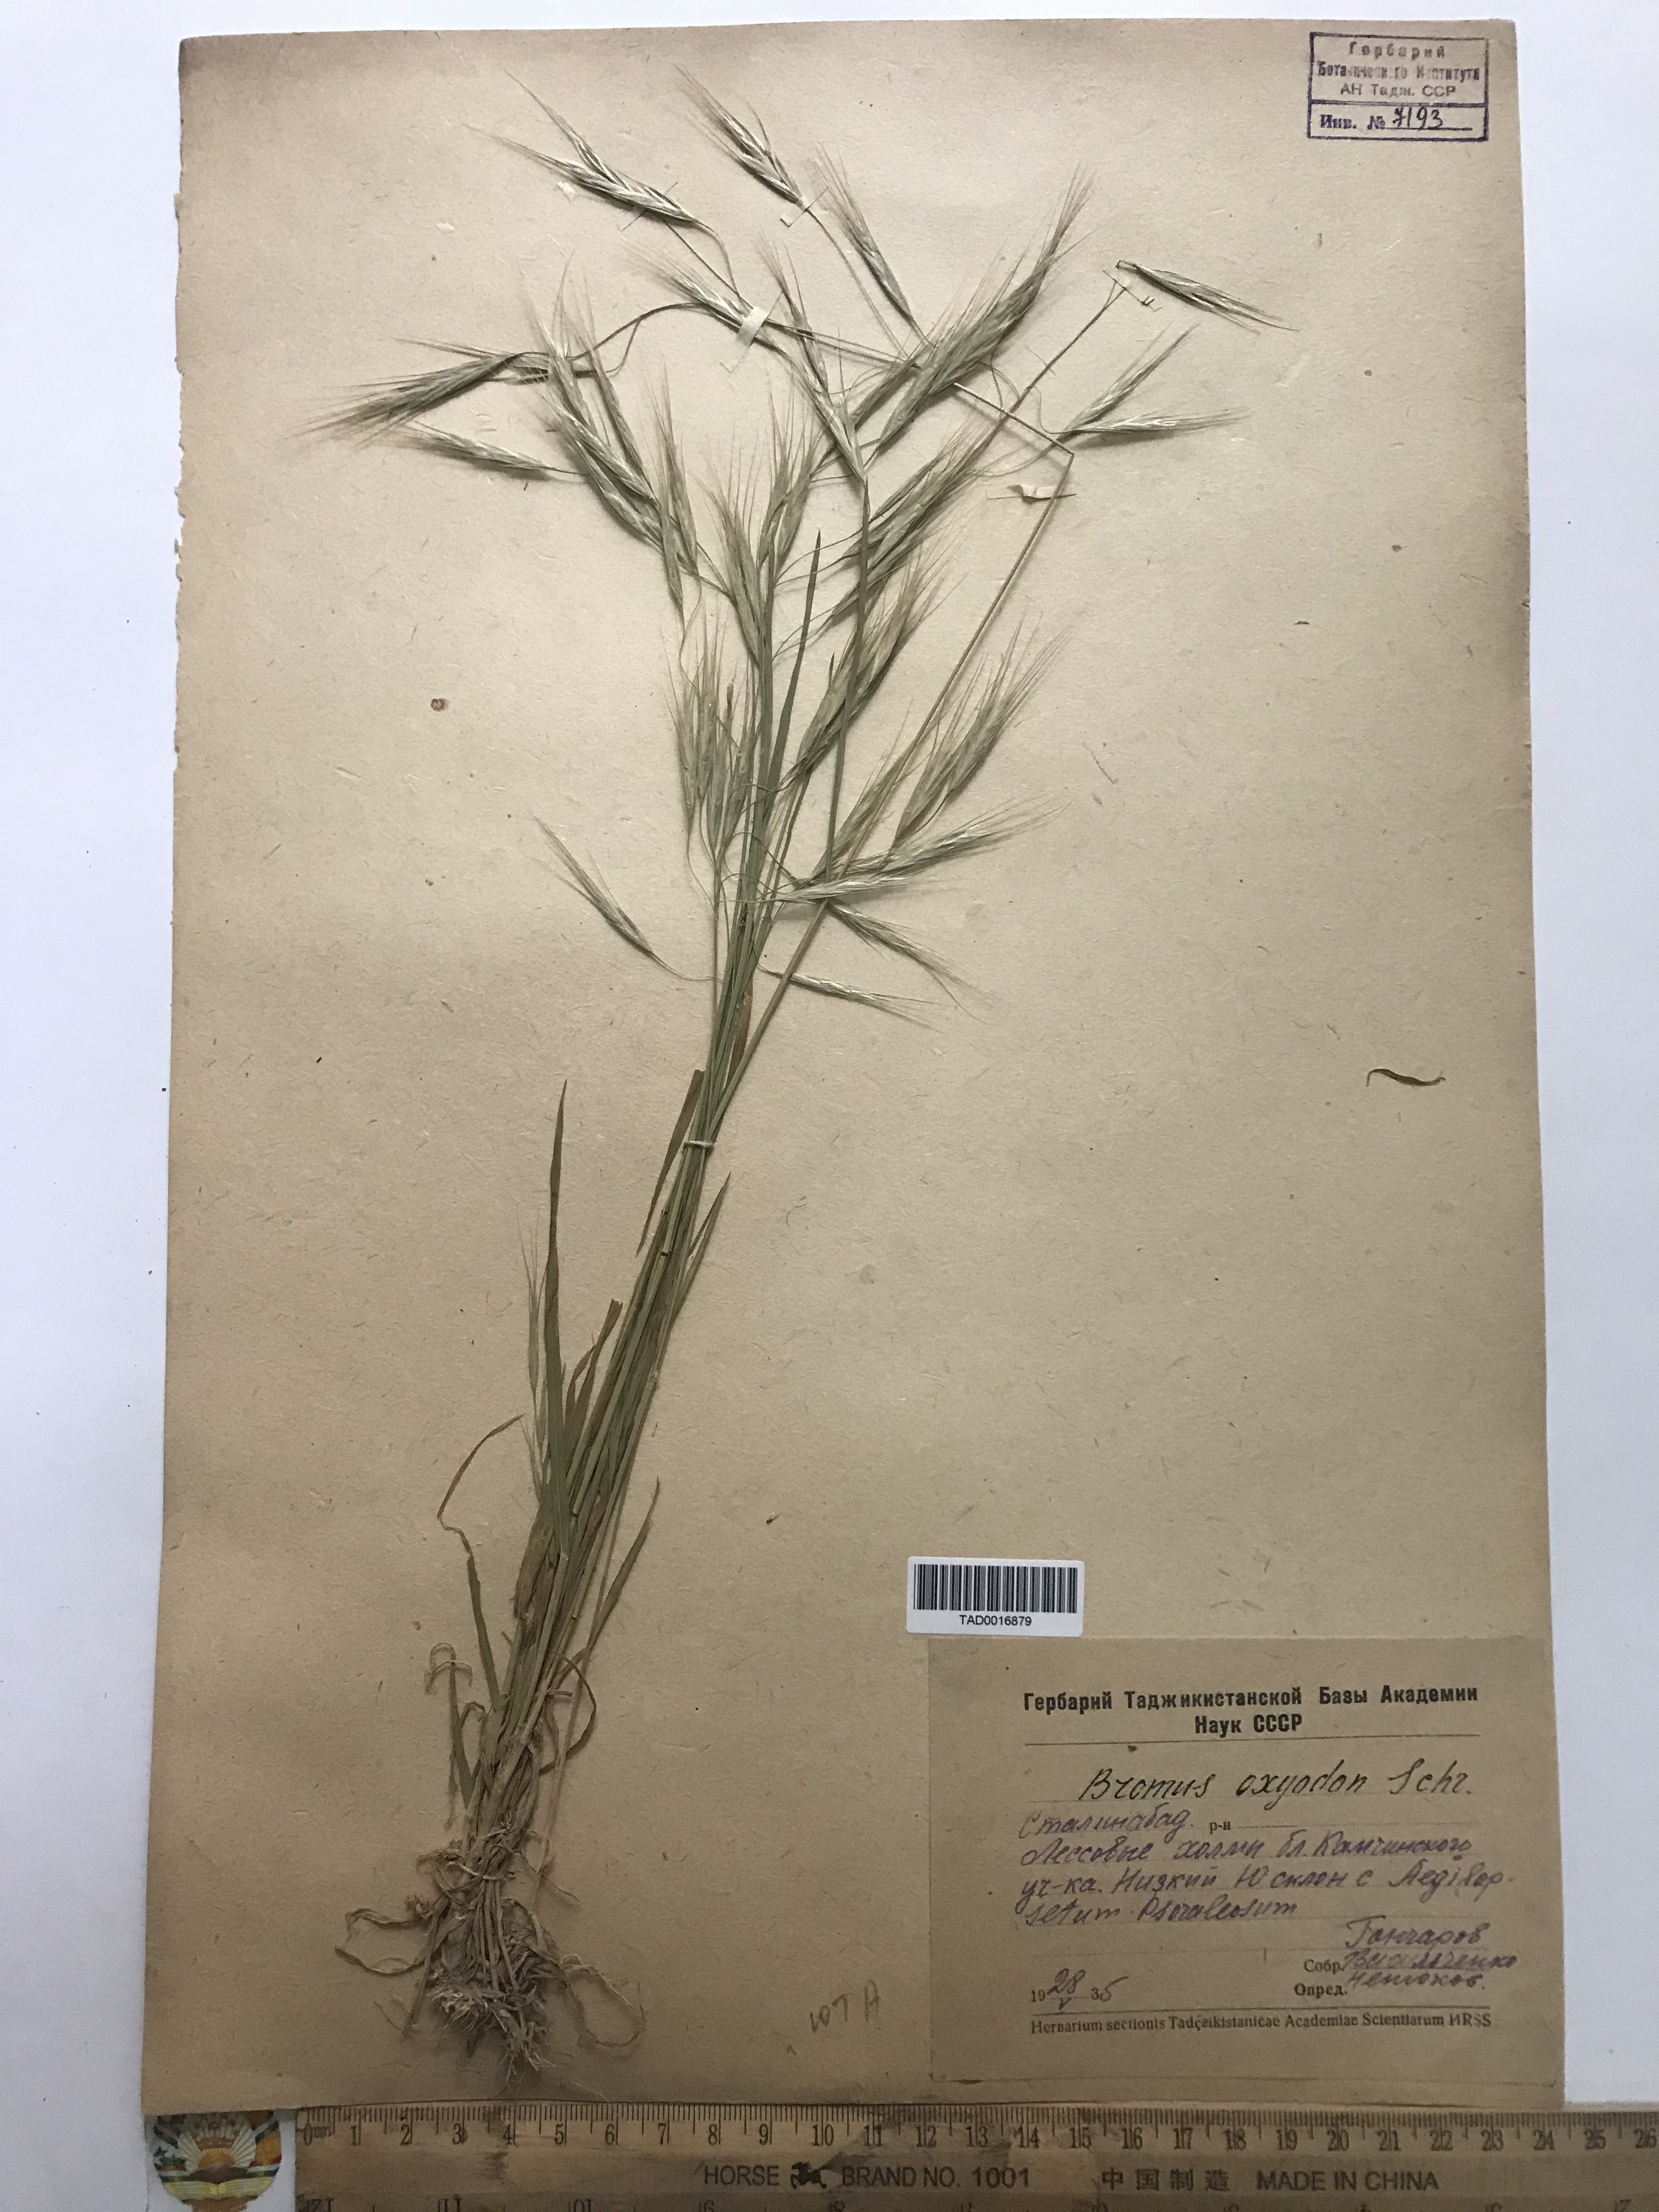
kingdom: Plantae
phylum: Tracheophyta
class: Liliopsida
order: Poales
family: Poaceae
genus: Bromus
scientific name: Bromus oxyodon
